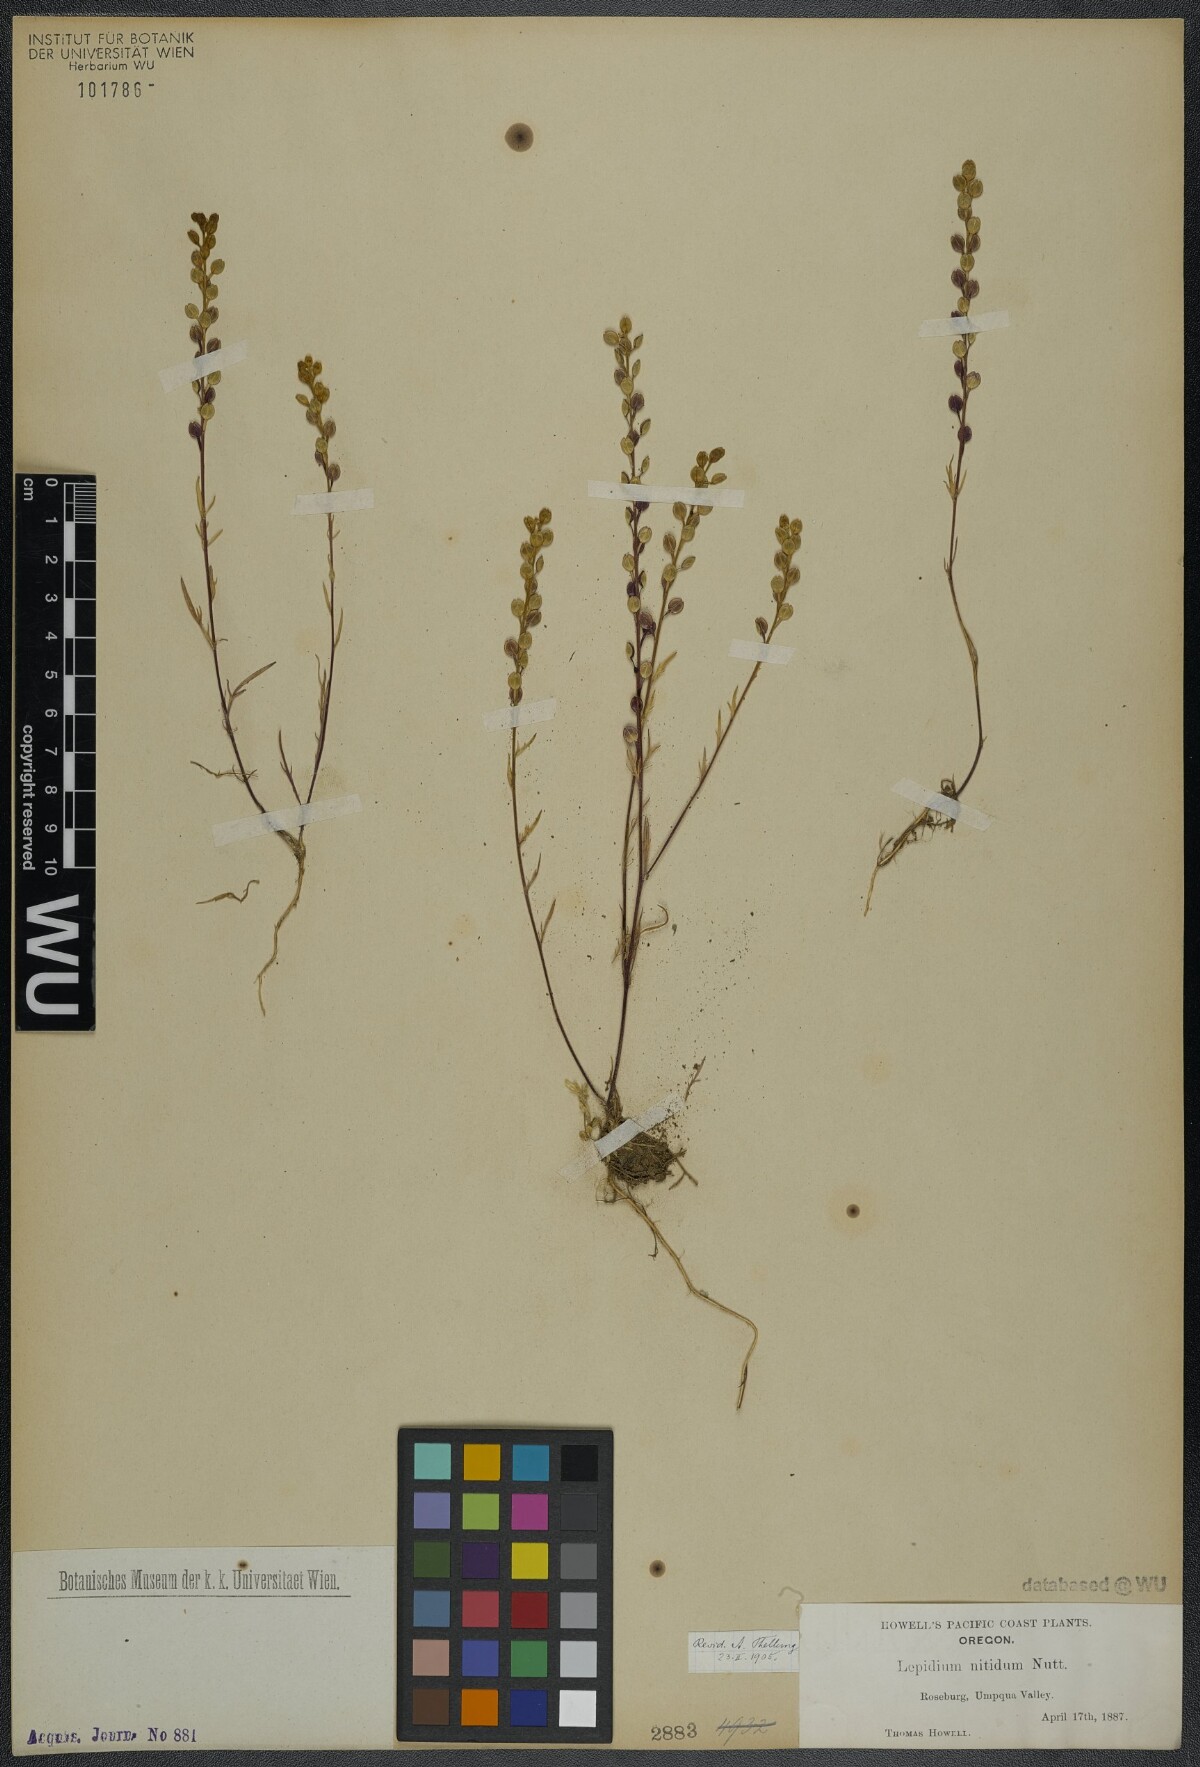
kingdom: Plantae
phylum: Tracheophyta
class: Magnoliopsida
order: Brassicales
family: Brassicaceae
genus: Lepidium
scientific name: Lepidium nitidum
